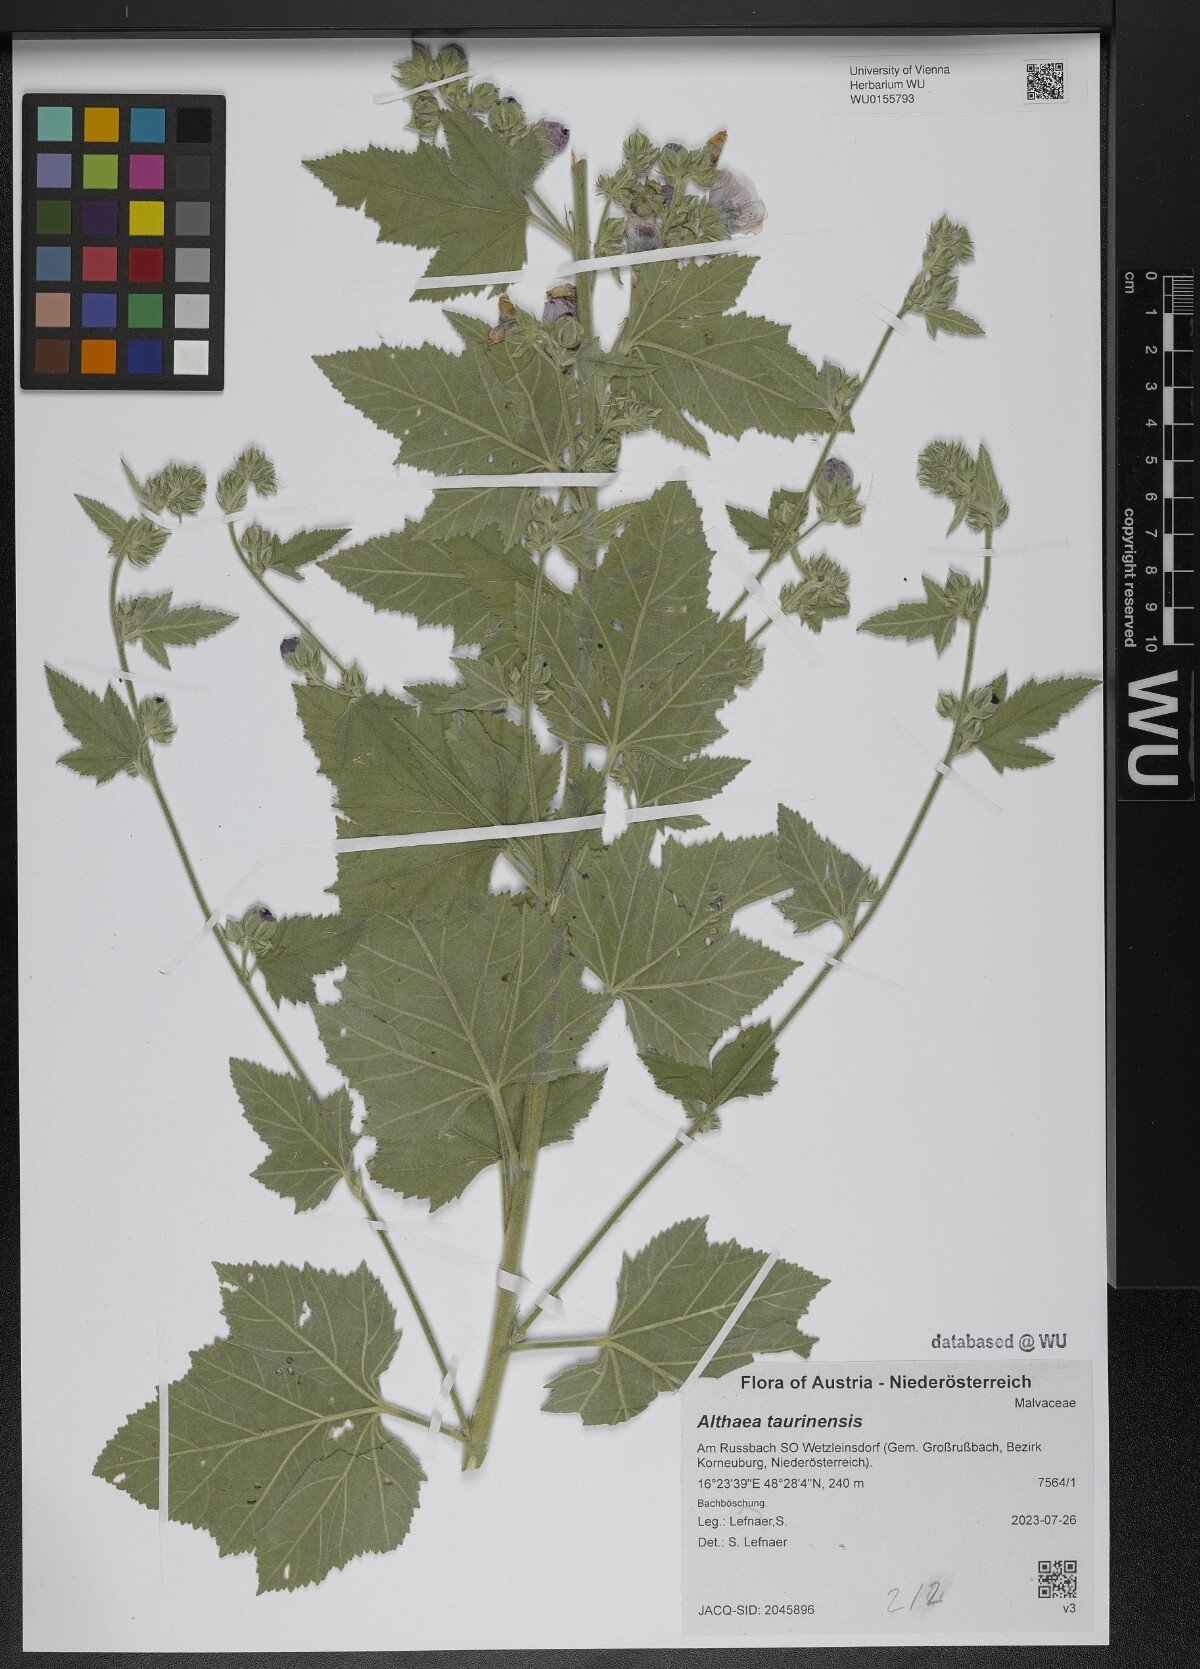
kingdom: Plantae
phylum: Tracheophyta
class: Magnoliopsida
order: Malvales
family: Malvaceae
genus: Althaea
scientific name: Althaea taurinensis
